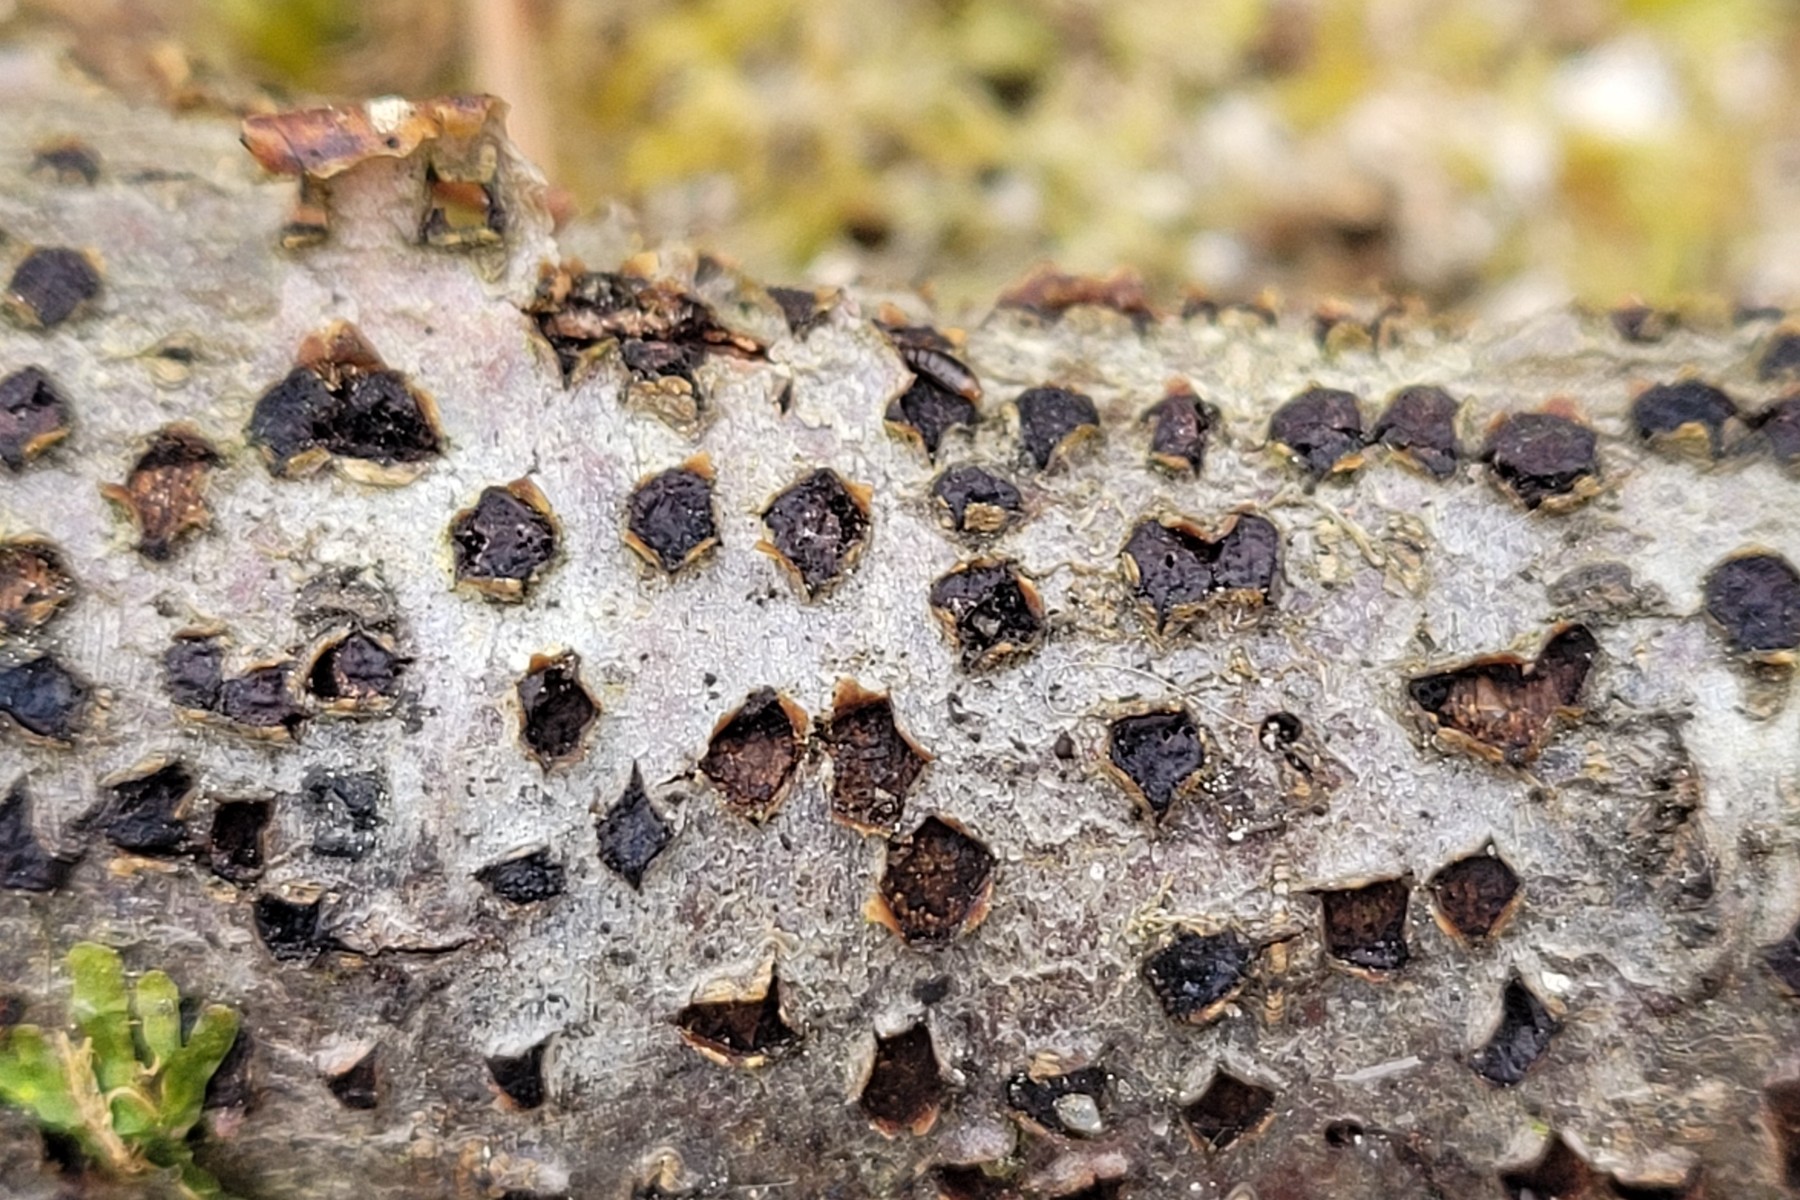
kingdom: Fungi
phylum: Ascomycota
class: Sordariomycetes
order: Xylariales
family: Diatrypaceae
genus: Diatrype
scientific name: Diatrype disciformis
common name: kant-kulskorpe
